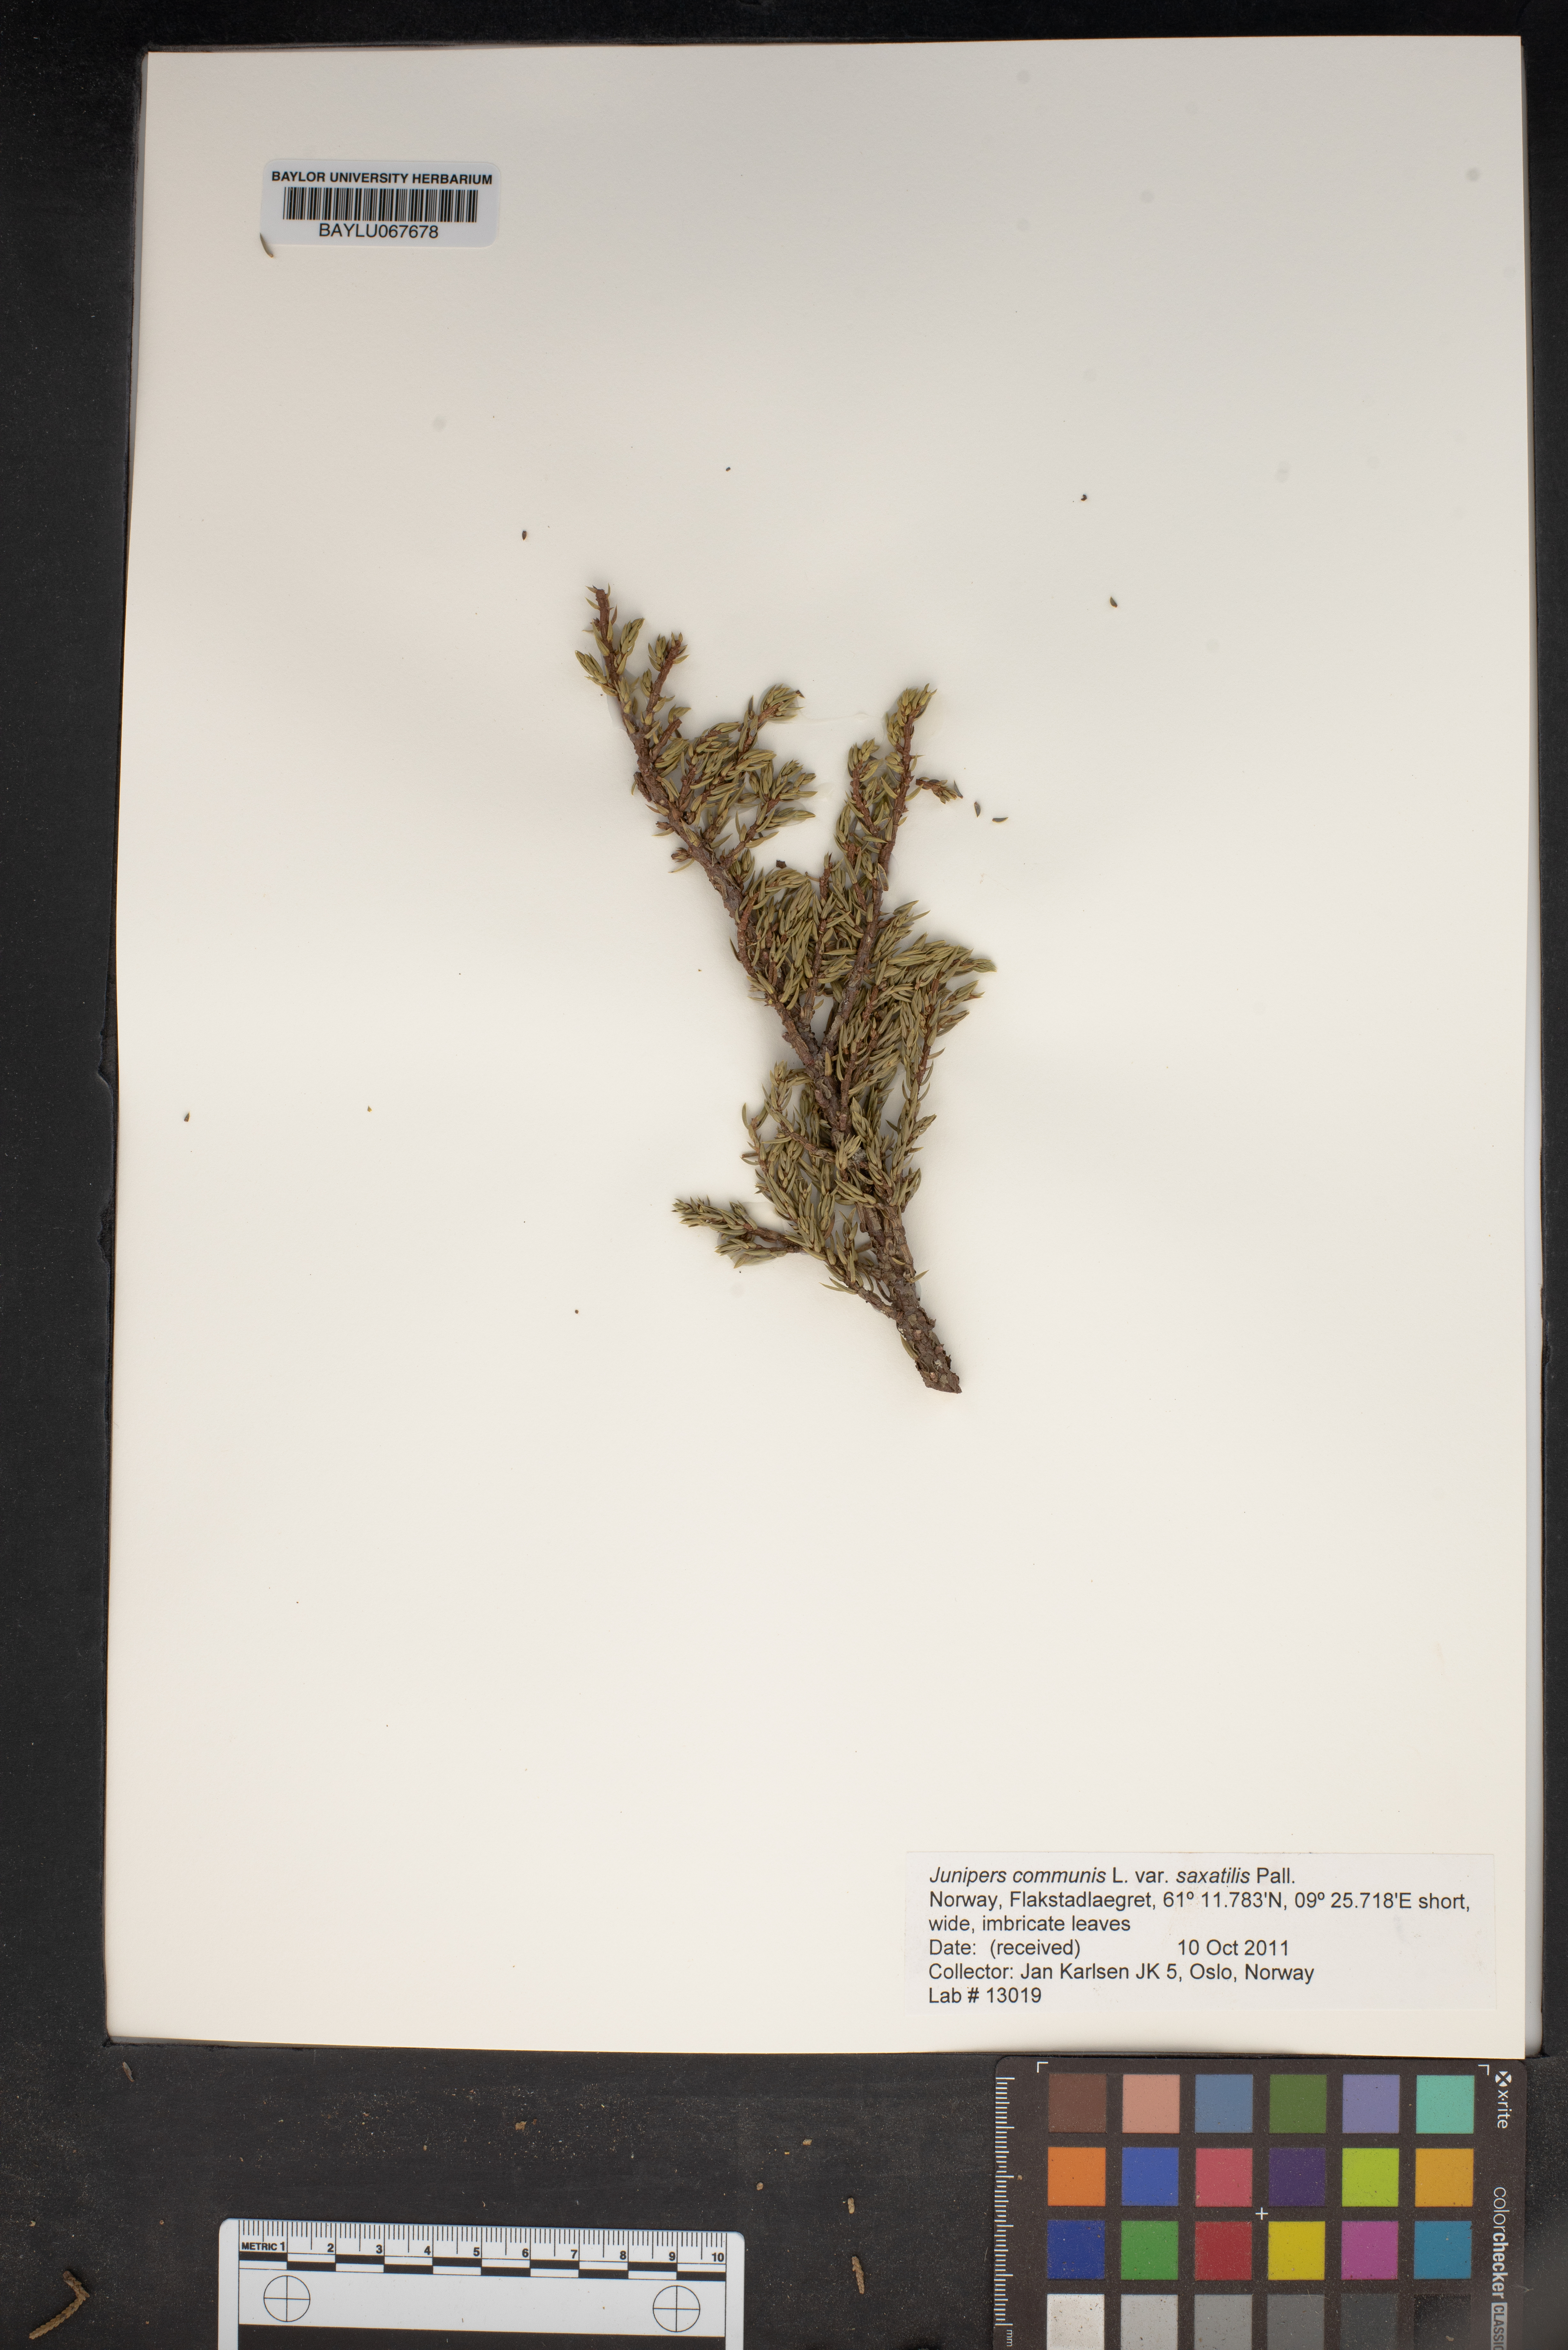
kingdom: Plantae
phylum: Tracheophyta
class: Pinopsida
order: Pinales
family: Cupressaceae
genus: Juniperus
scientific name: Juniperus communis
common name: Common juniper
